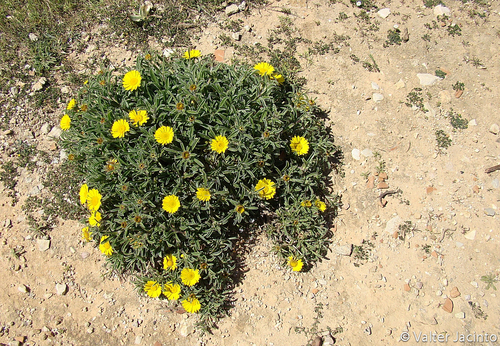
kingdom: Plantae
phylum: Tracheophyta
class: Magnoliopsida
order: Asterales
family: Asteraceae
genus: Pallenis
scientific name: Pallenis maritima
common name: Golden coin daisy
